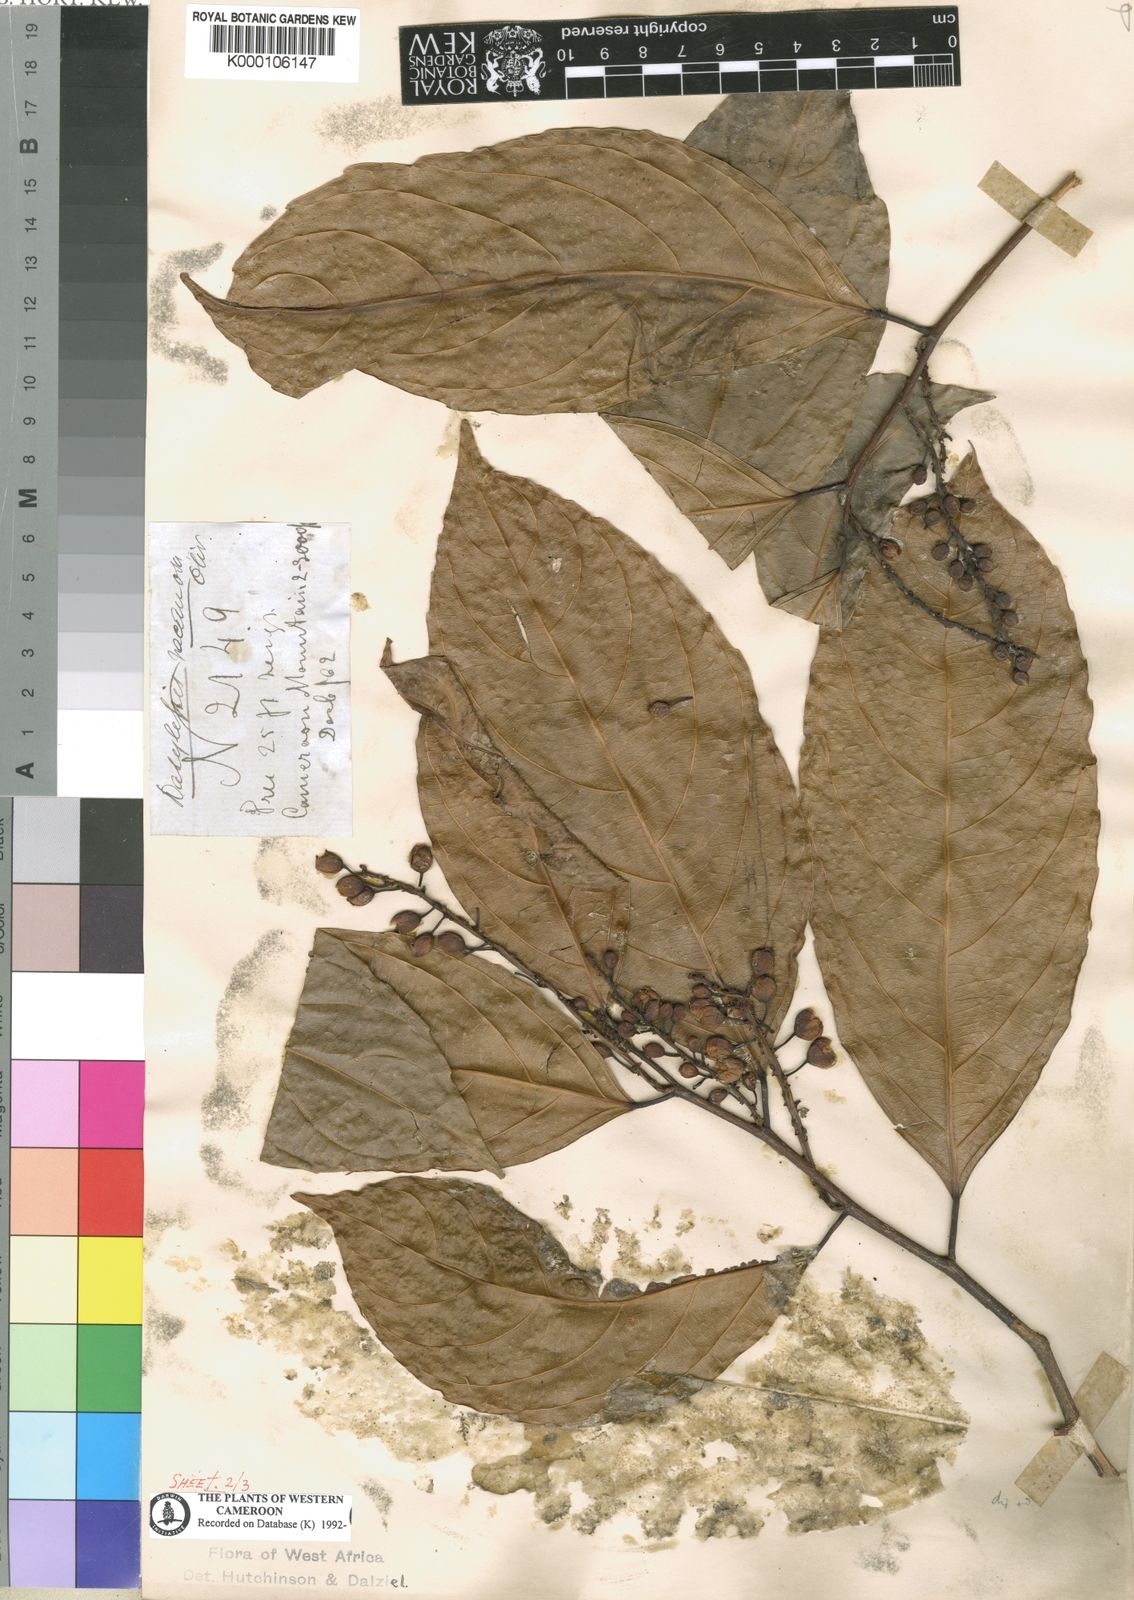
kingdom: Plantae
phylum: Tracheophyta
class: Magnoliopsida
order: Malpighiales
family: Achariaceae
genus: Dasylepis
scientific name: Dasylepis racemosa
